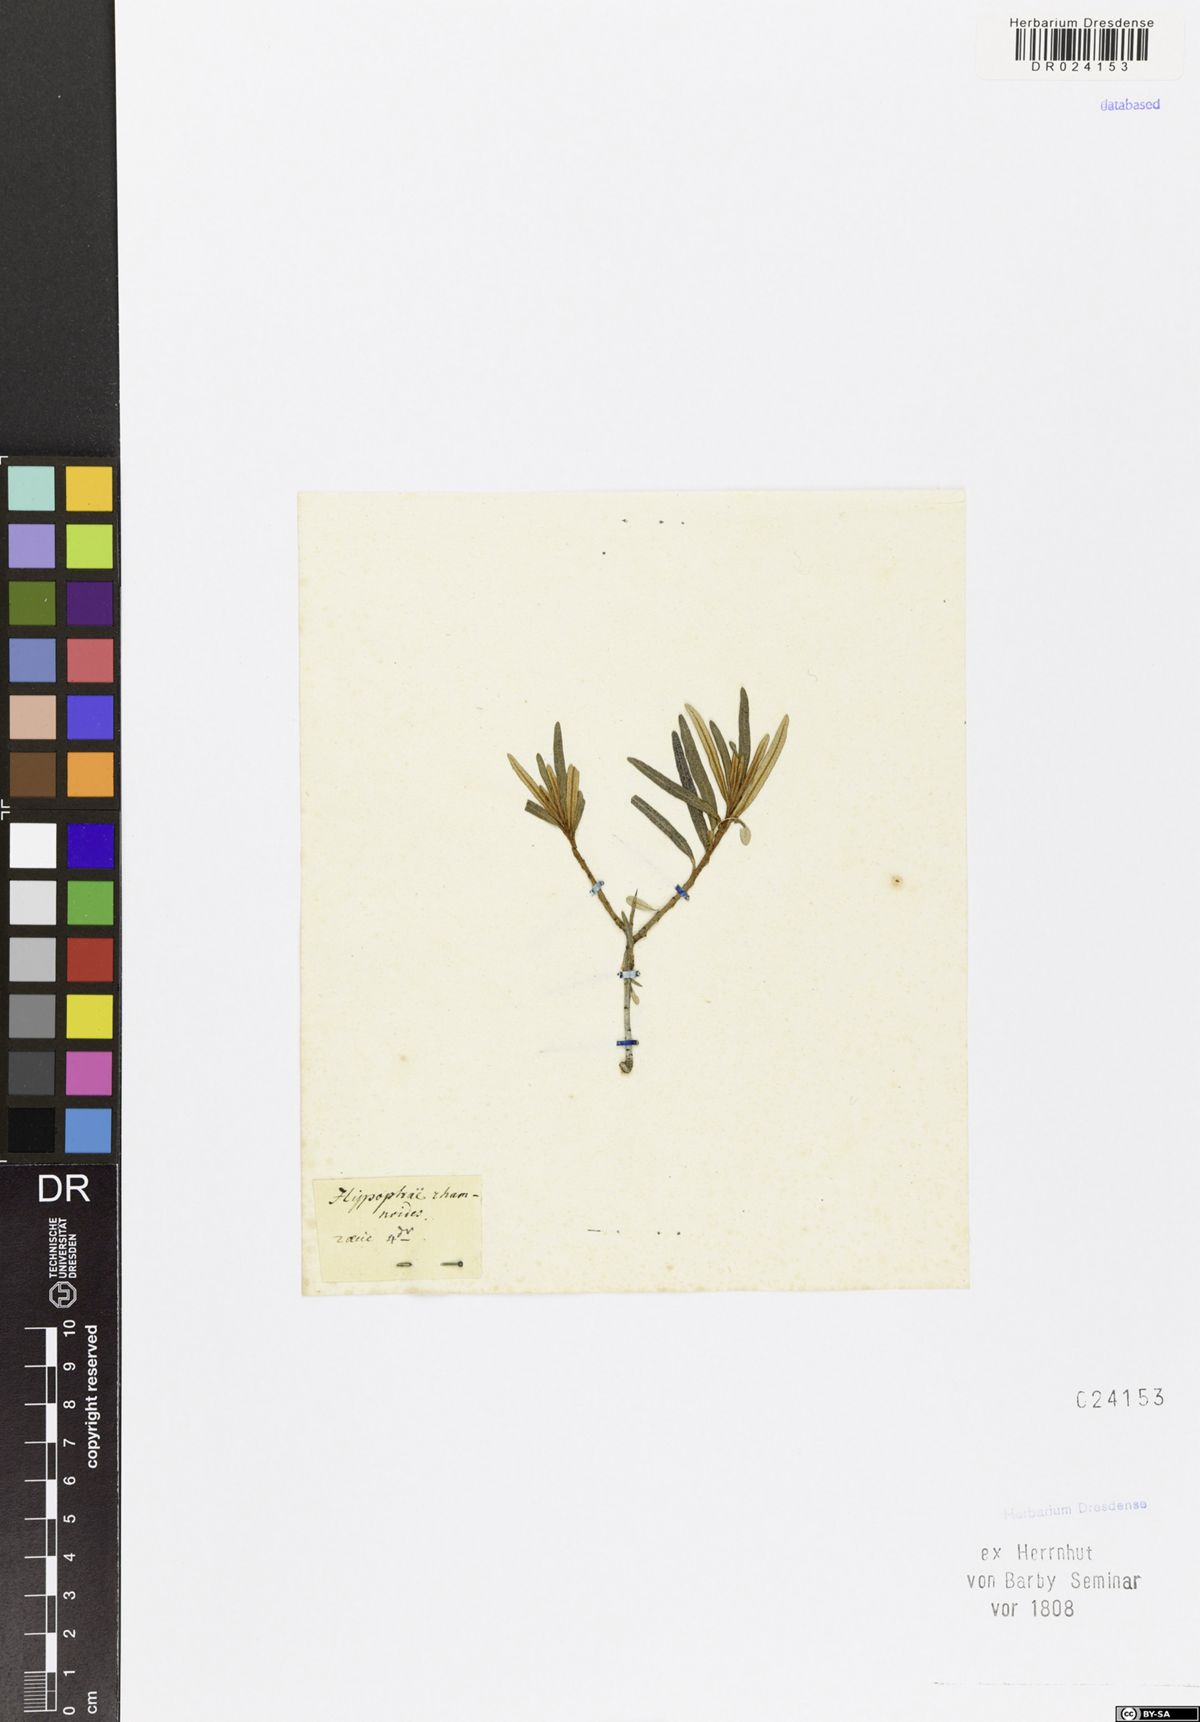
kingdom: Plantae
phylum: Tracheophyta
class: Magnoliopsida
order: Rosales
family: Elaeagnaceae
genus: Hippophae
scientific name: Hippophae rhamnoides
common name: Sea-buckthorn
